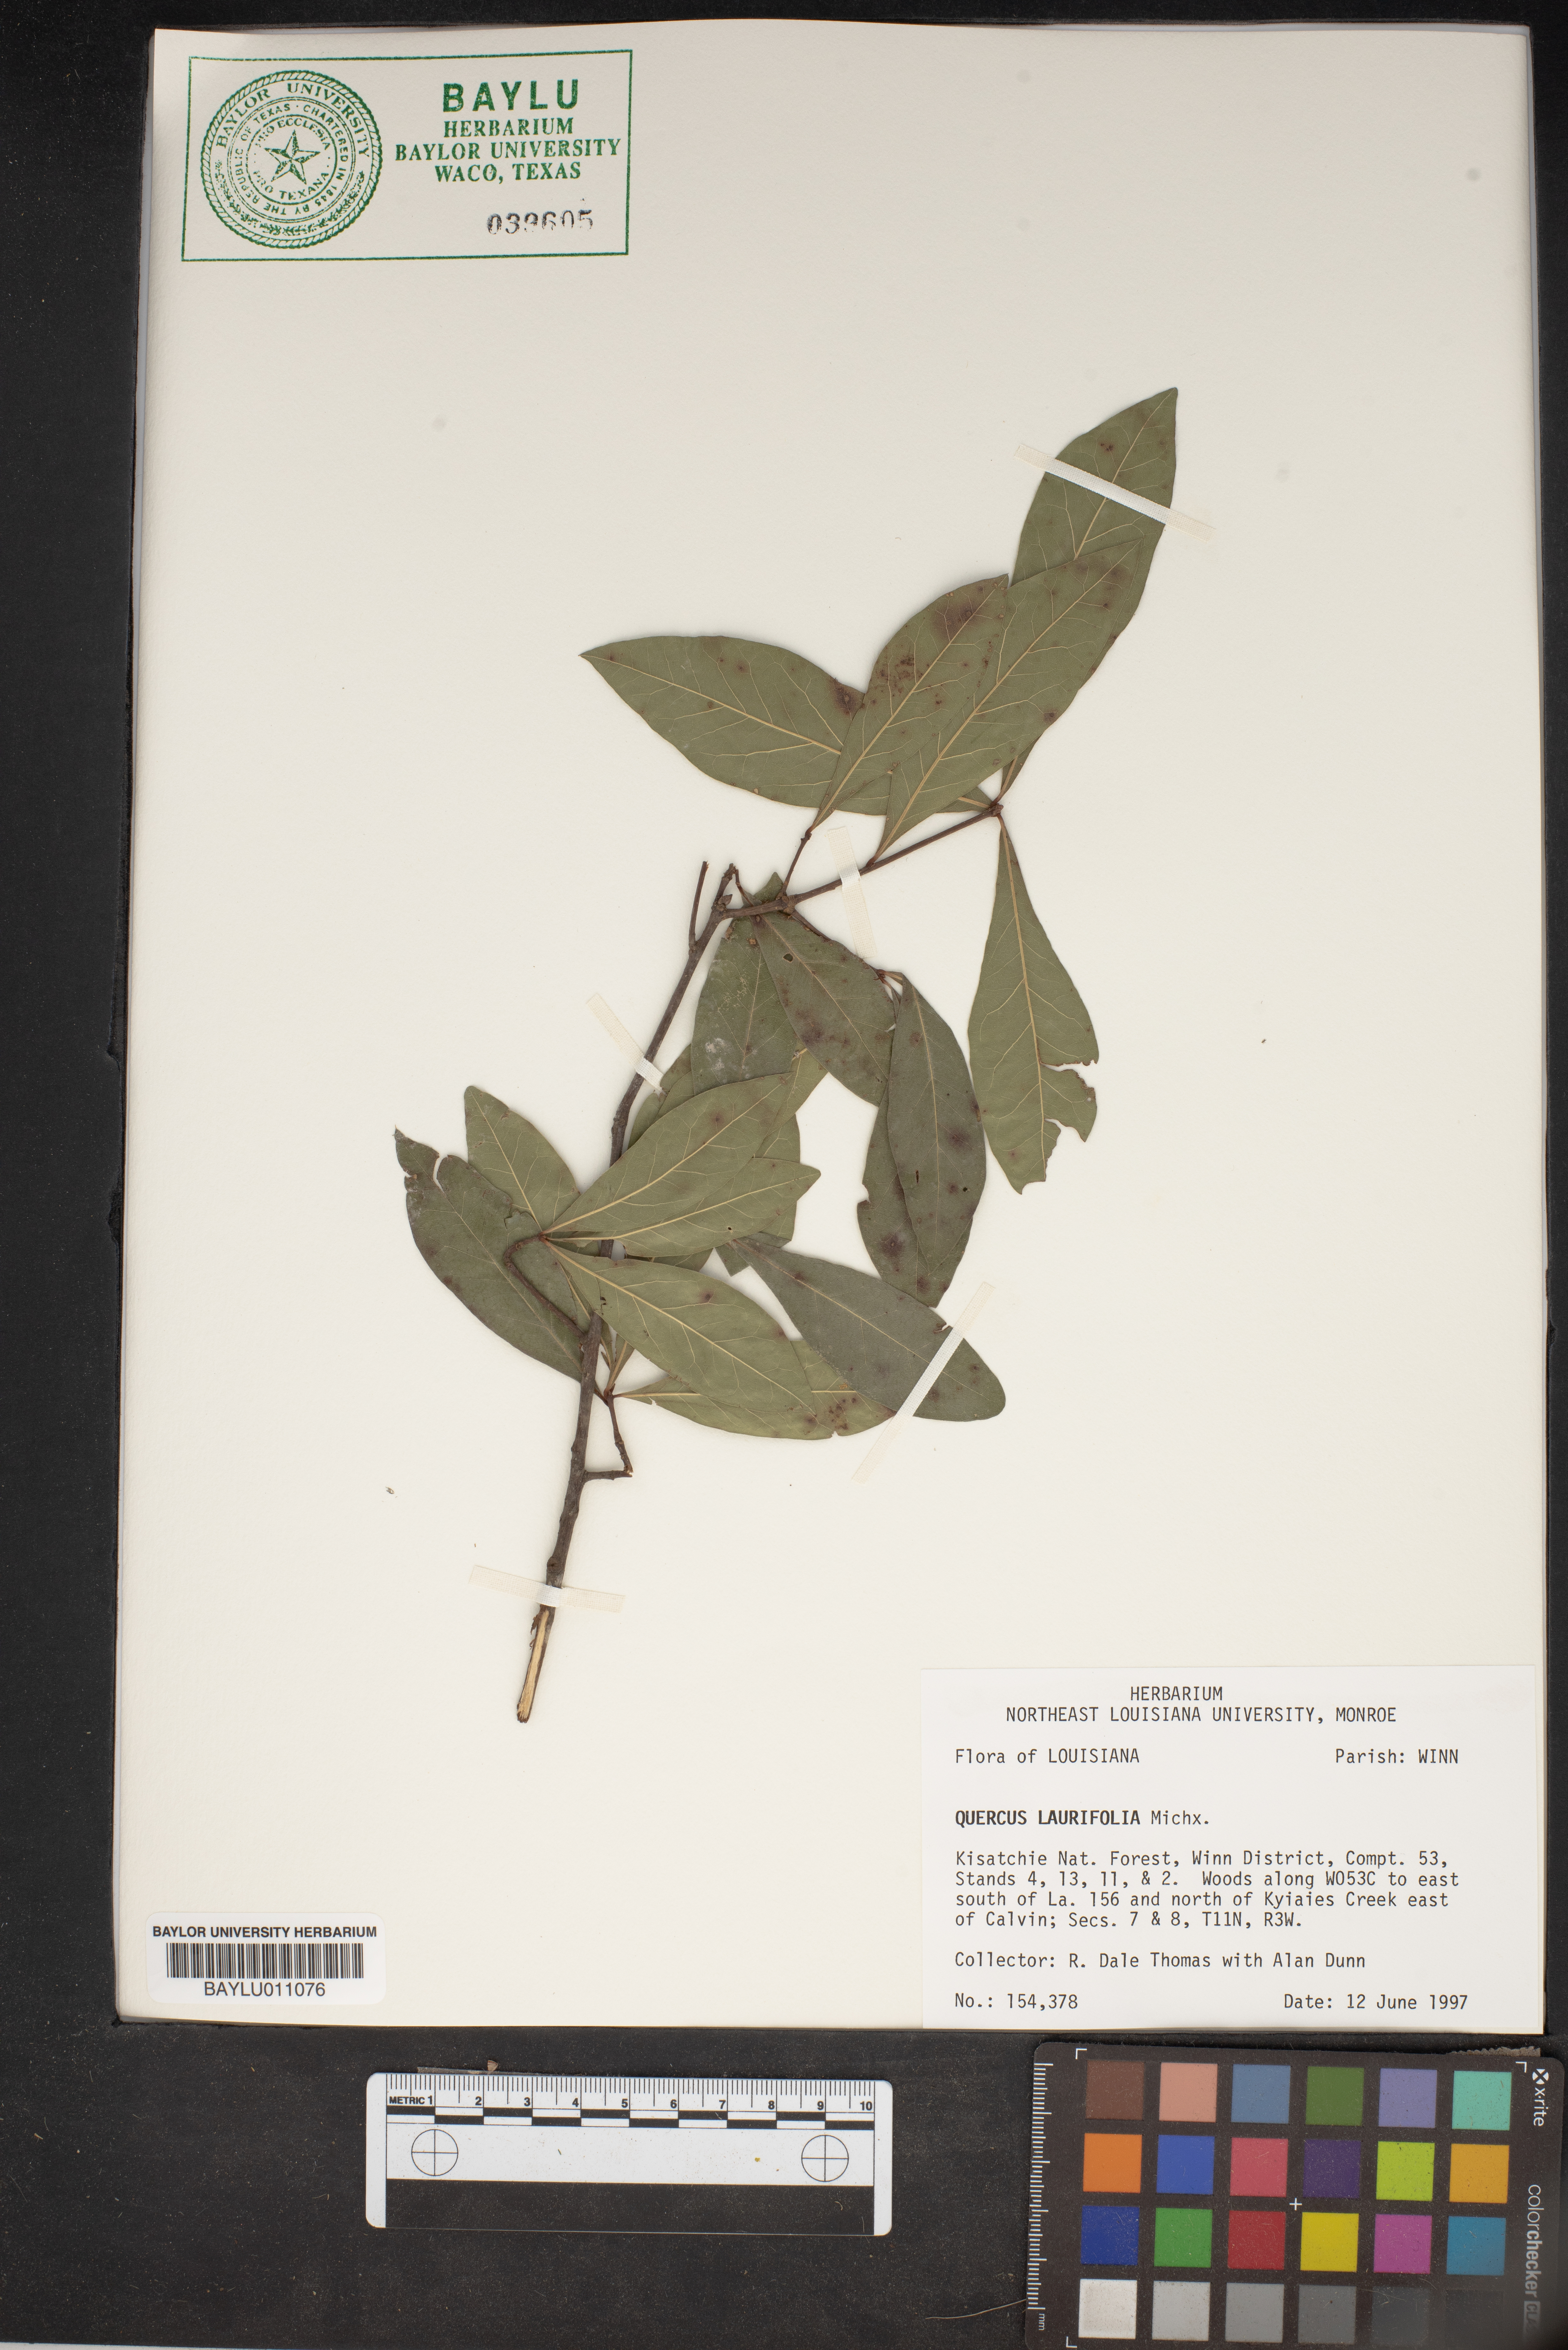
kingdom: Plantae
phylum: Tracheophyta
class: Magnoliopsida
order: Fagales
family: Fagaceae
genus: Quercus
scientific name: Quercus laurifolia
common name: Swamp laurel oak
